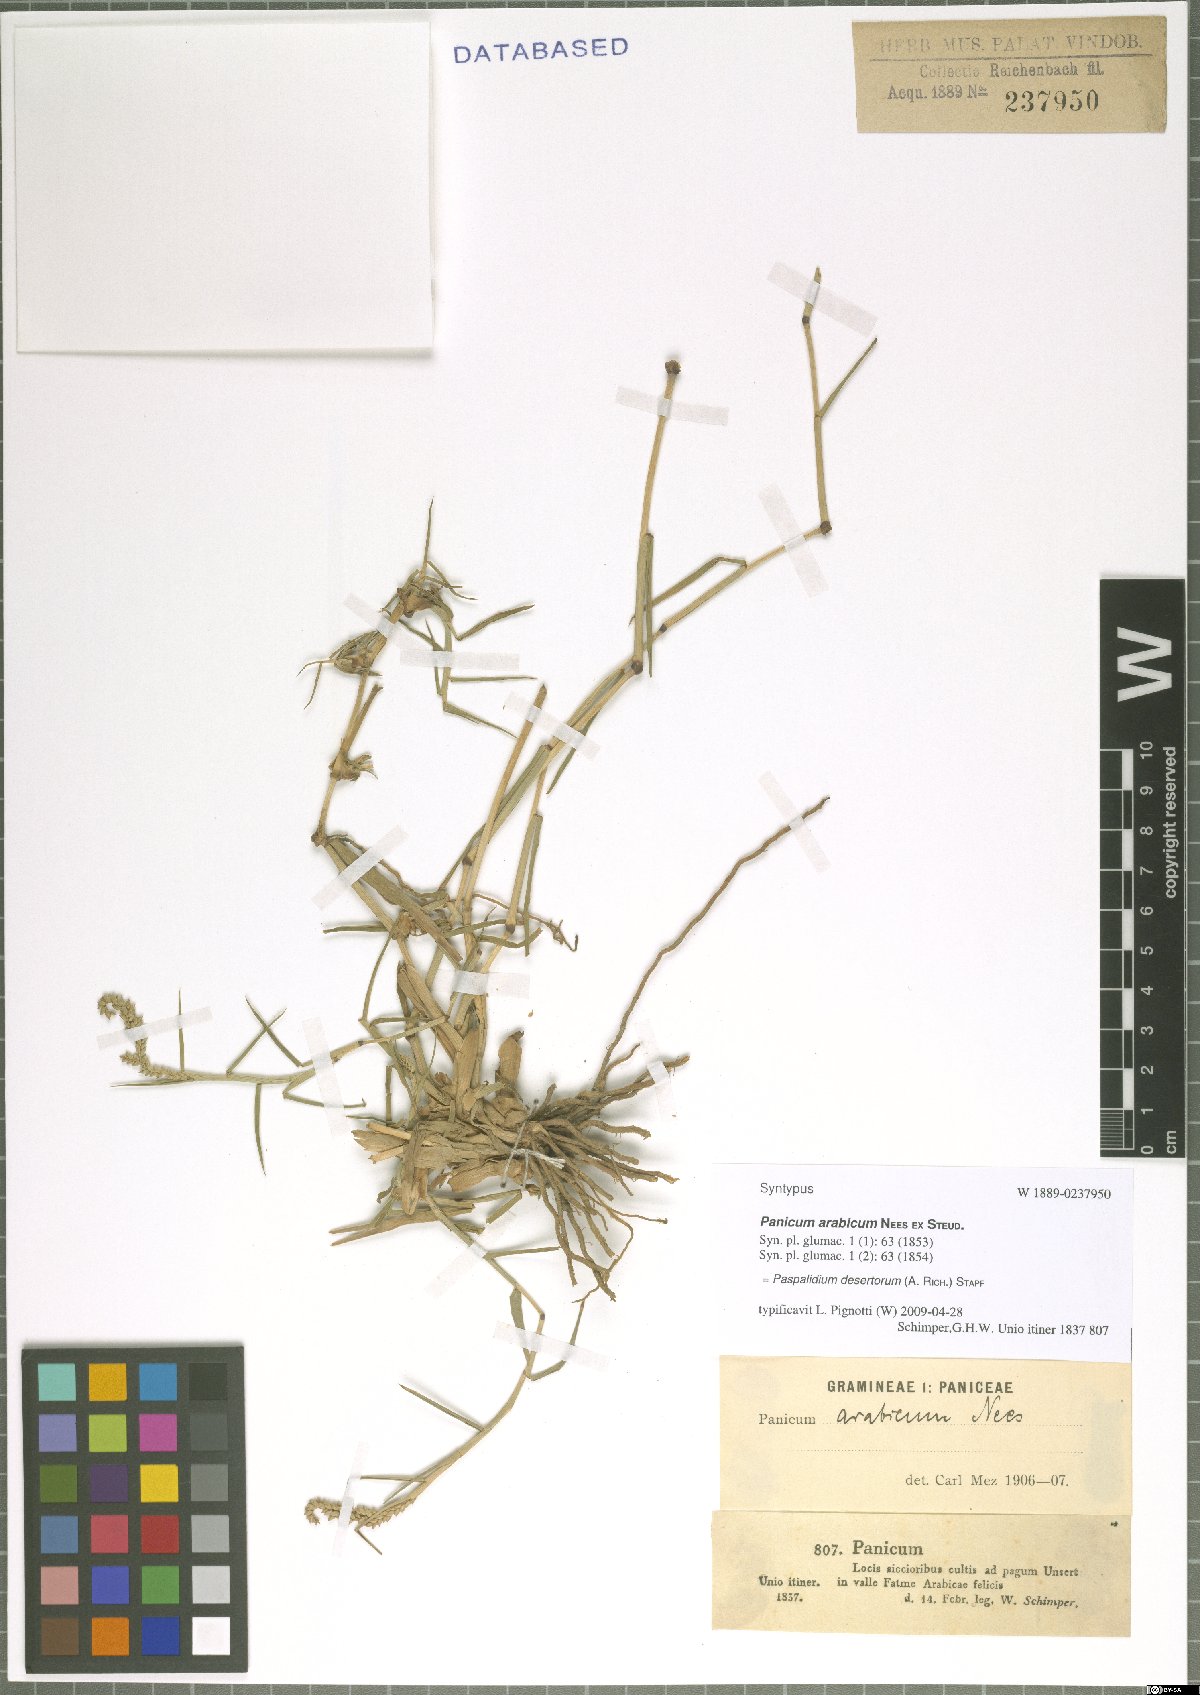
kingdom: Plantae
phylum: Tracheophyta
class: Liliopsida
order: Poales
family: Poaceae
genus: Setaria
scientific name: Setaria desertorum
